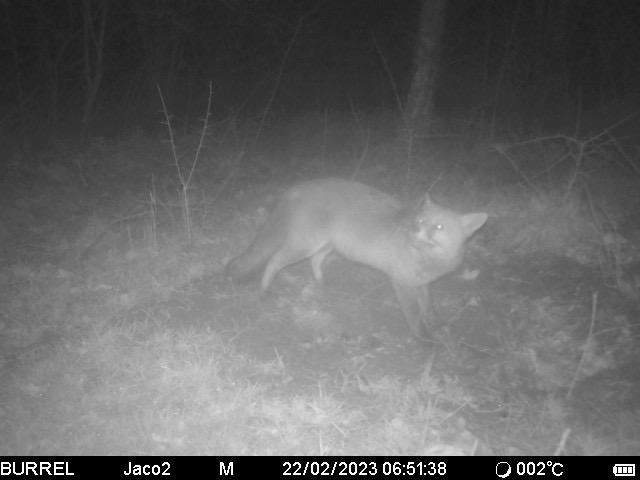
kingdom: Animalia
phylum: Chordata
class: Mammalia
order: Carnivora
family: Canidae
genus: Vulpes
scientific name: Vulpes vulpes
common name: Ræv
